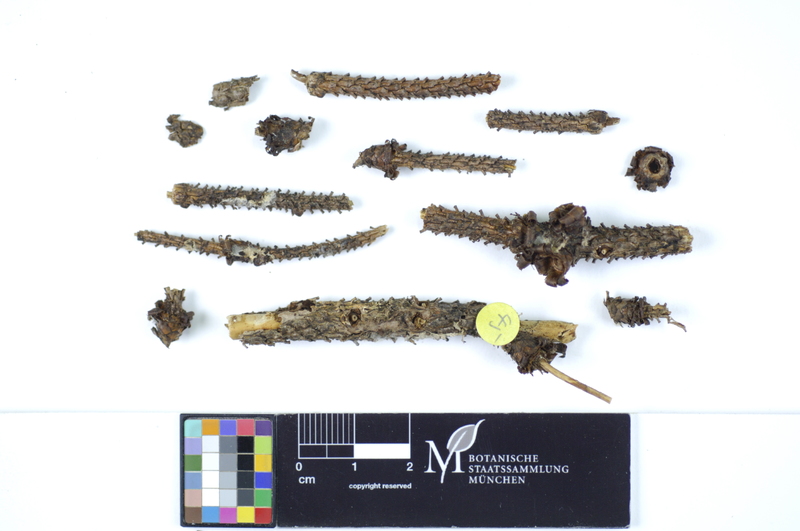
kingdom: Fungi
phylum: Basidiomycota
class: Agaricomycetes
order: Hymenochaetales
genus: Kurtia
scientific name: Kurtia argillacea
